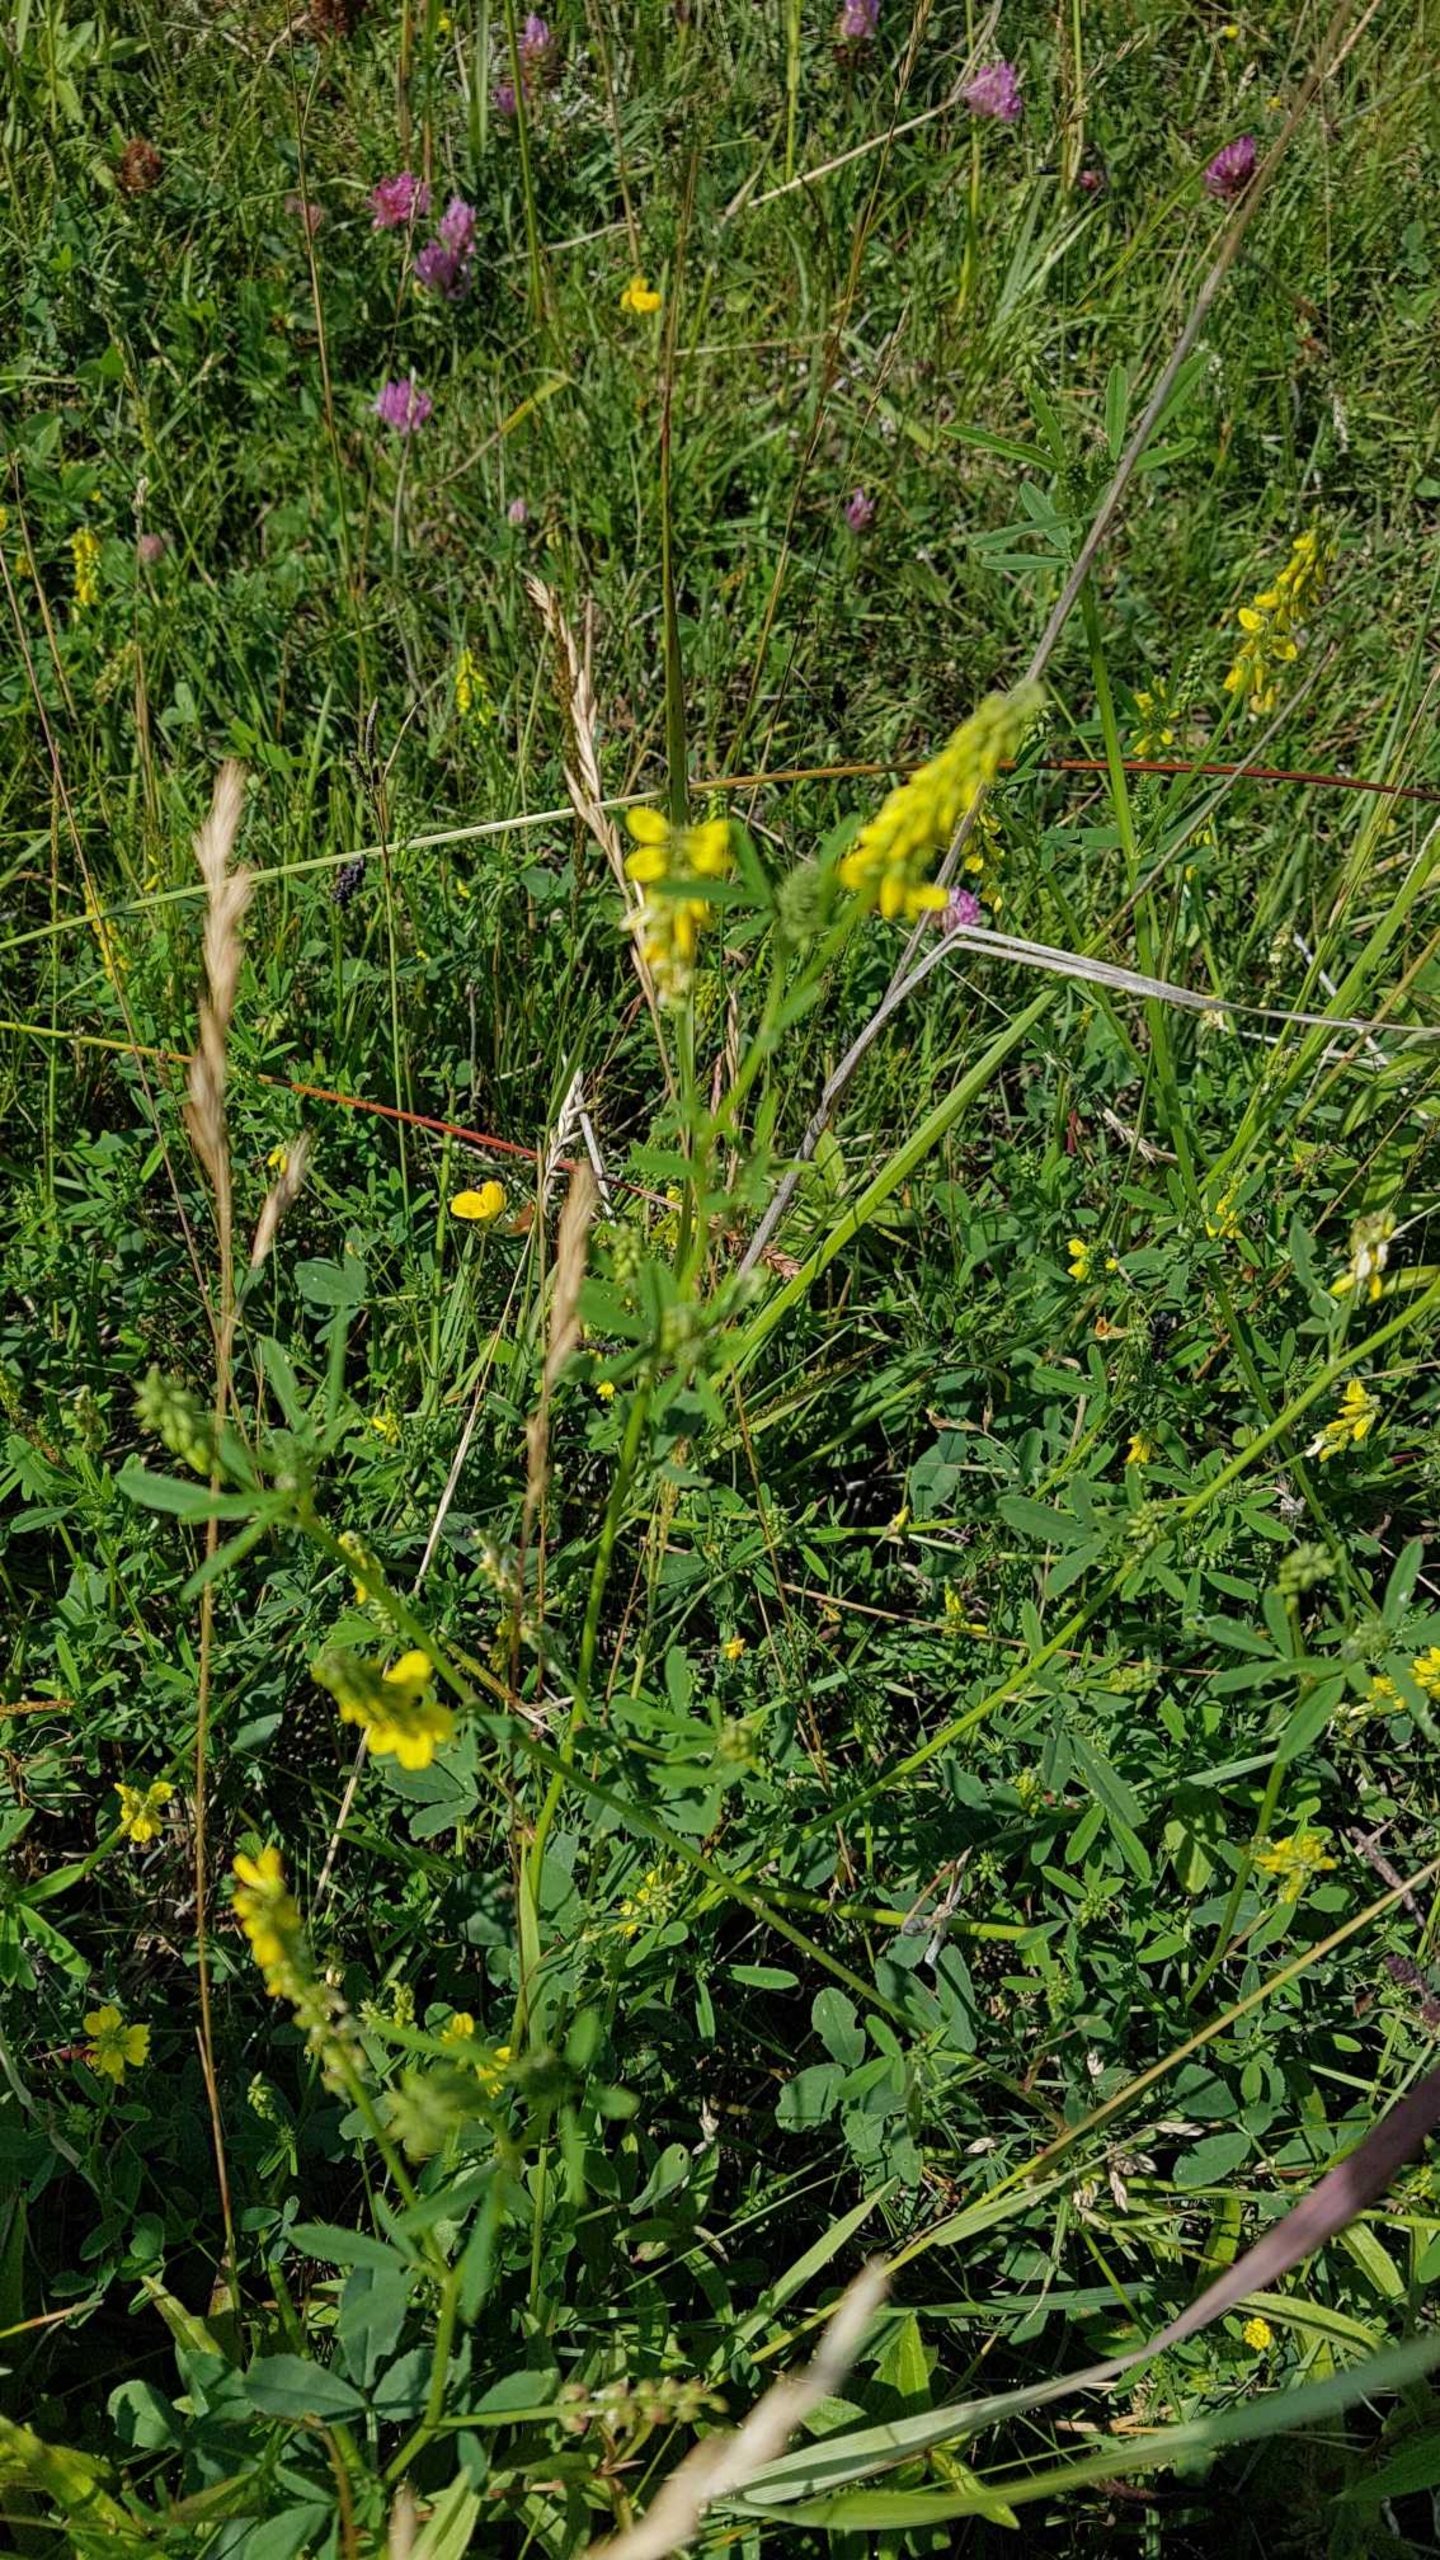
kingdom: Plantae
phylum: Tracheophyta
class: Magnoliopsida
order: Fabales
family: Fabaceae
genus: Melilotus
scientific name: Melilotus altissimus
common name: Høj stenkløver
